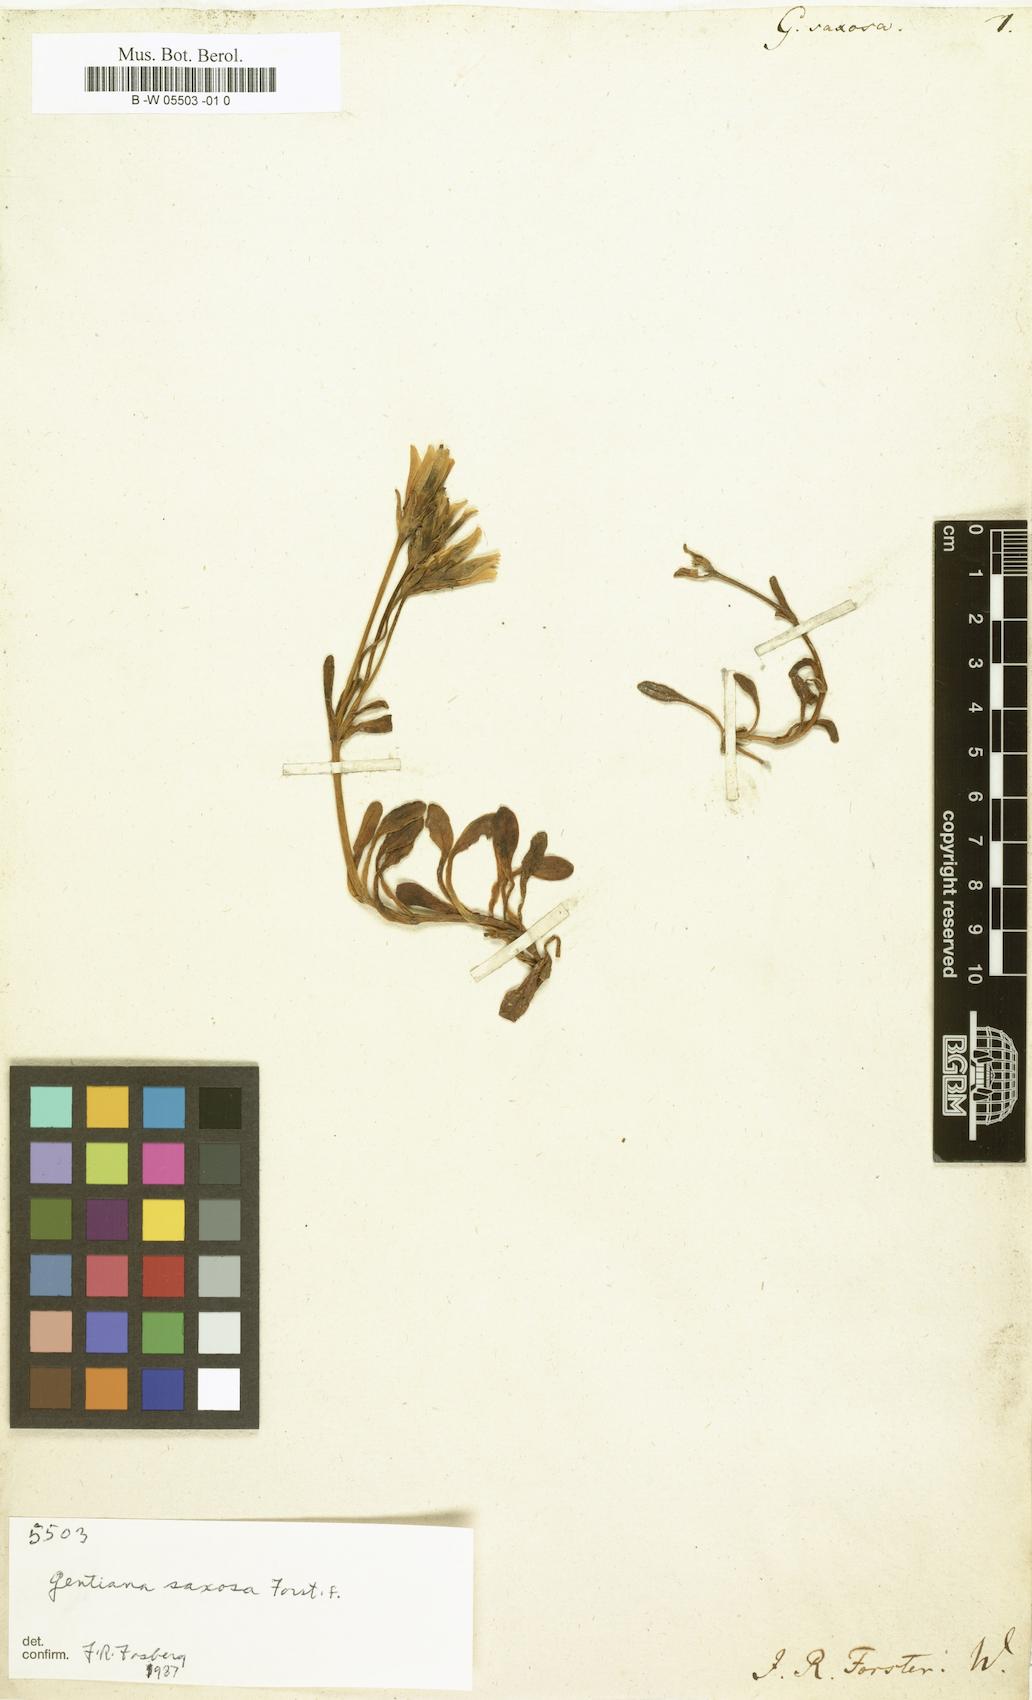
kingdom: Plantae
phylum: Tracheophyta
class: Magnoliopsida
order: Gentianales
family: Gentianaceae
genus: Gentianella
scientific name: Gentianella saxosa
